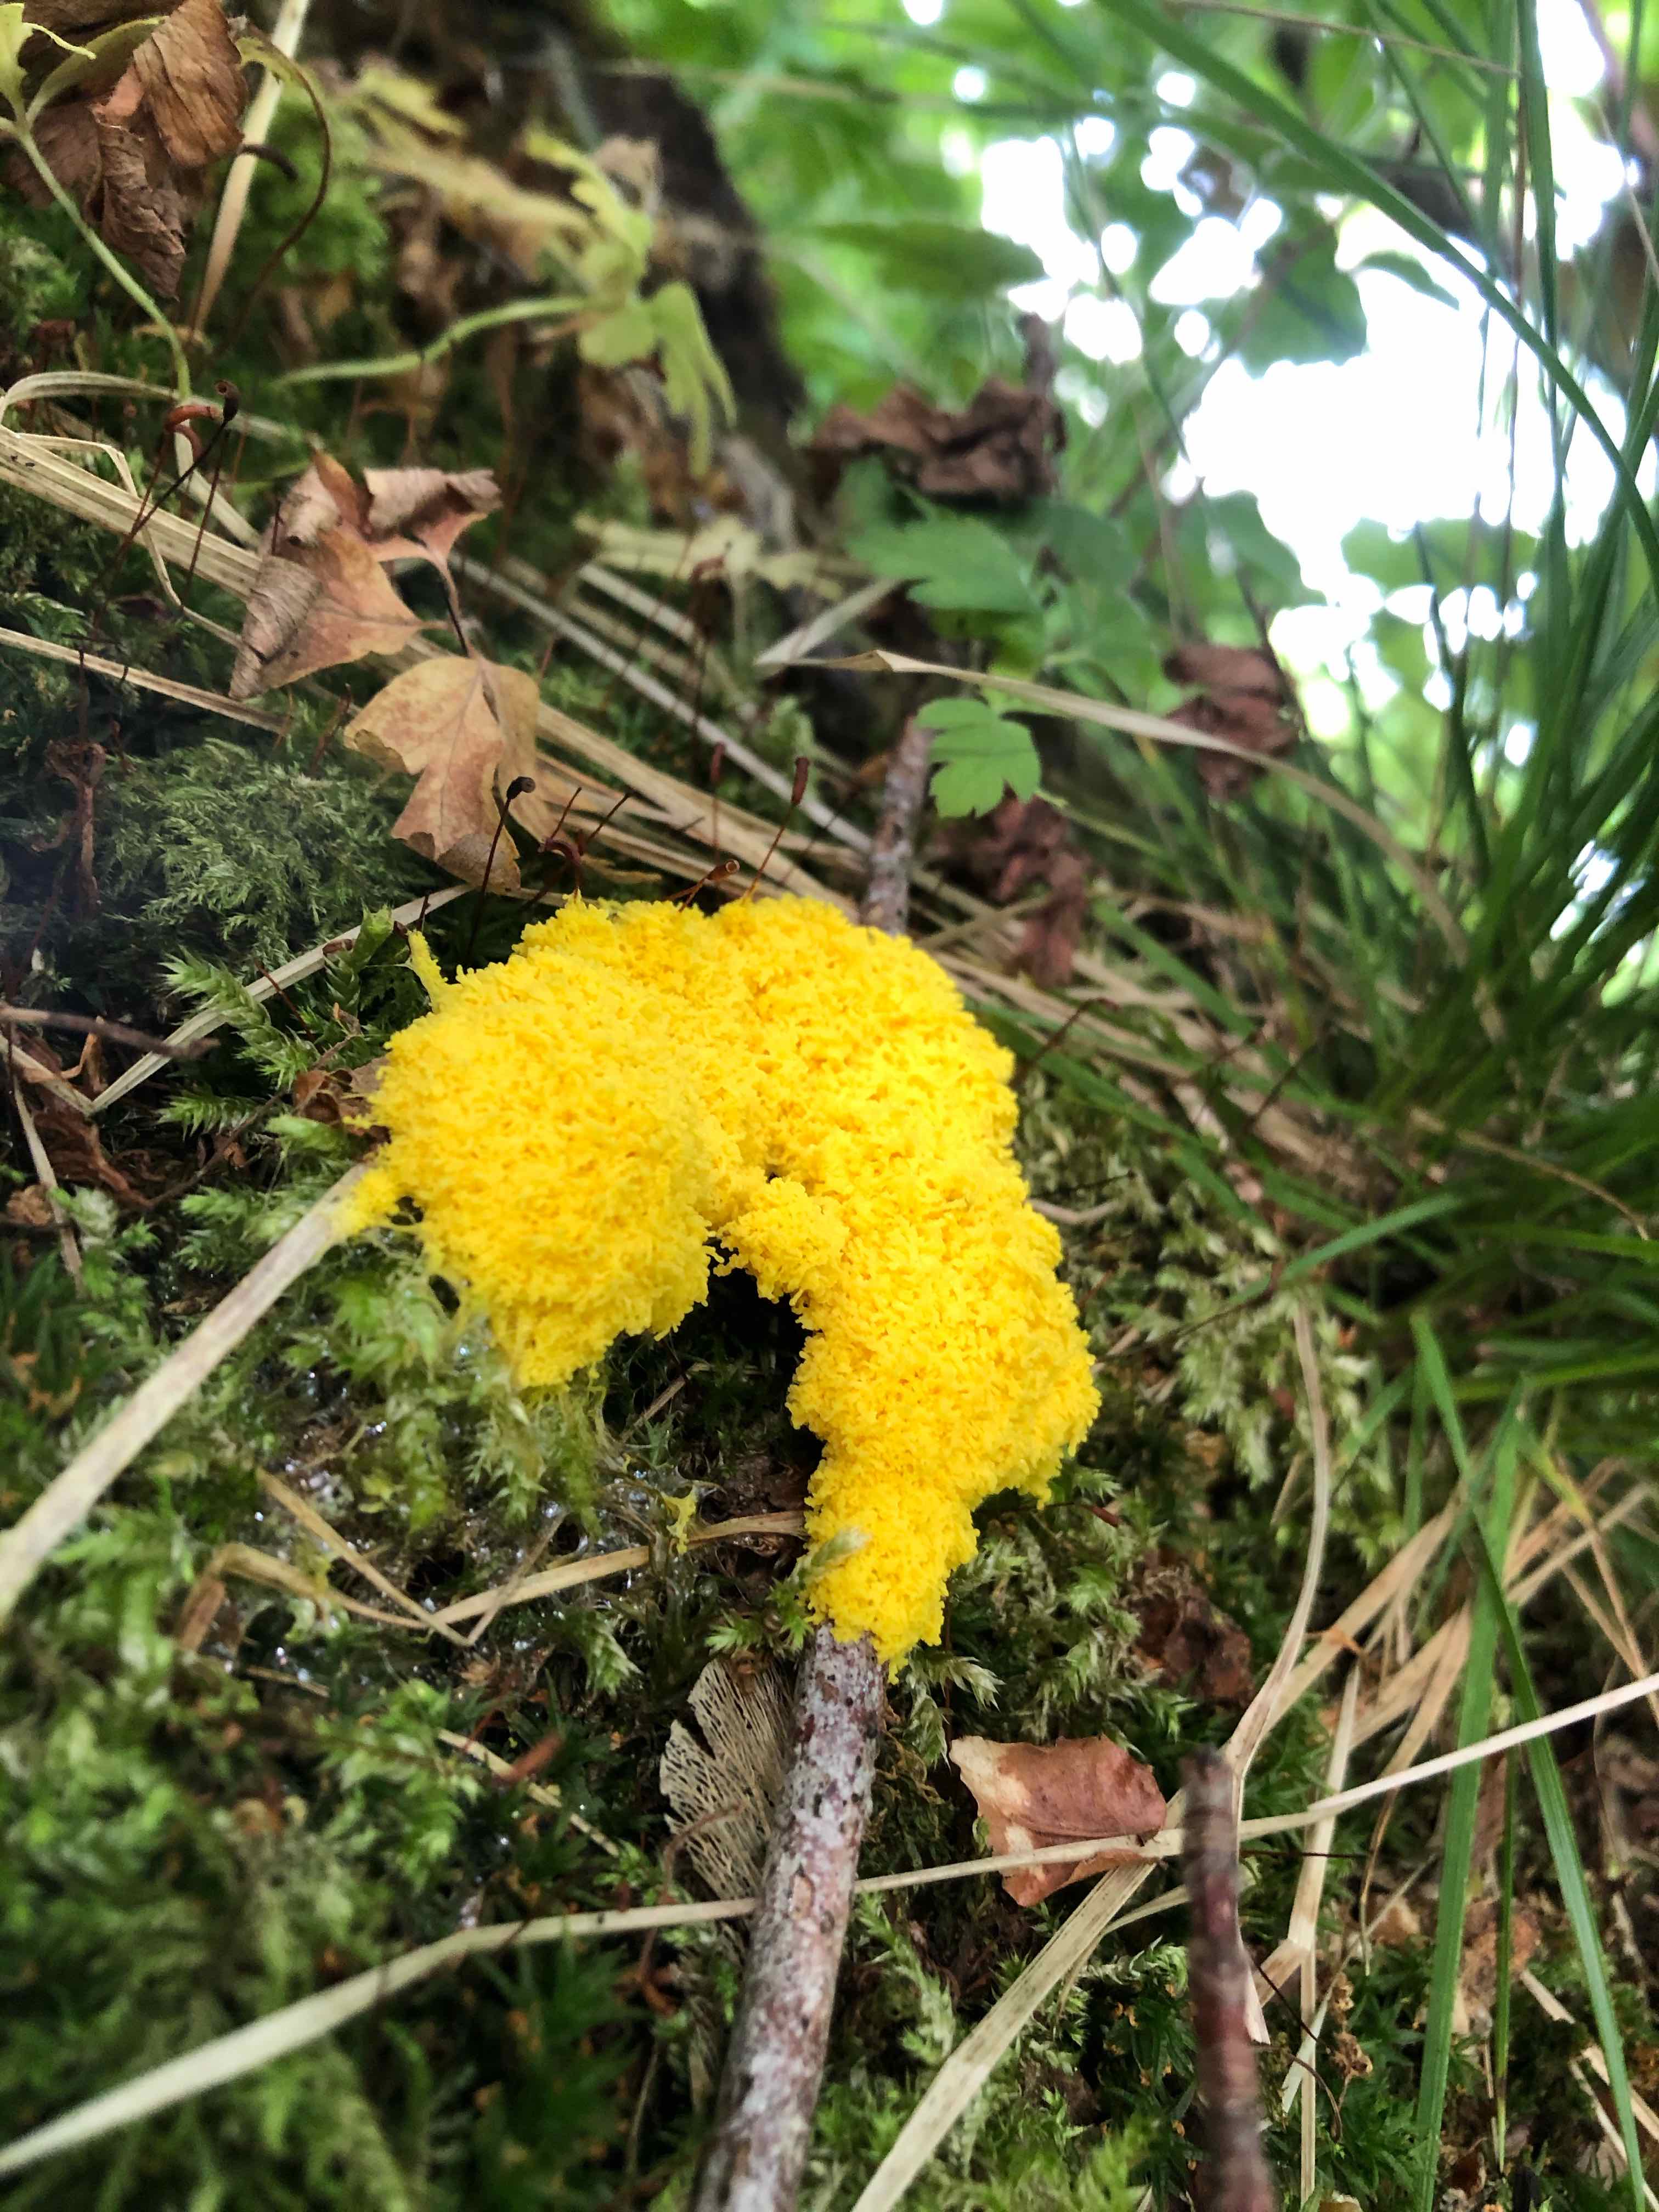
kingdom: Protozoa
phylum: Mycetozoa
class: Myxomycetes
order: Physarales
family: Physaraceae
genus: Fuligo
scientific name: Fuligo septica
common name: gul troldsmør
